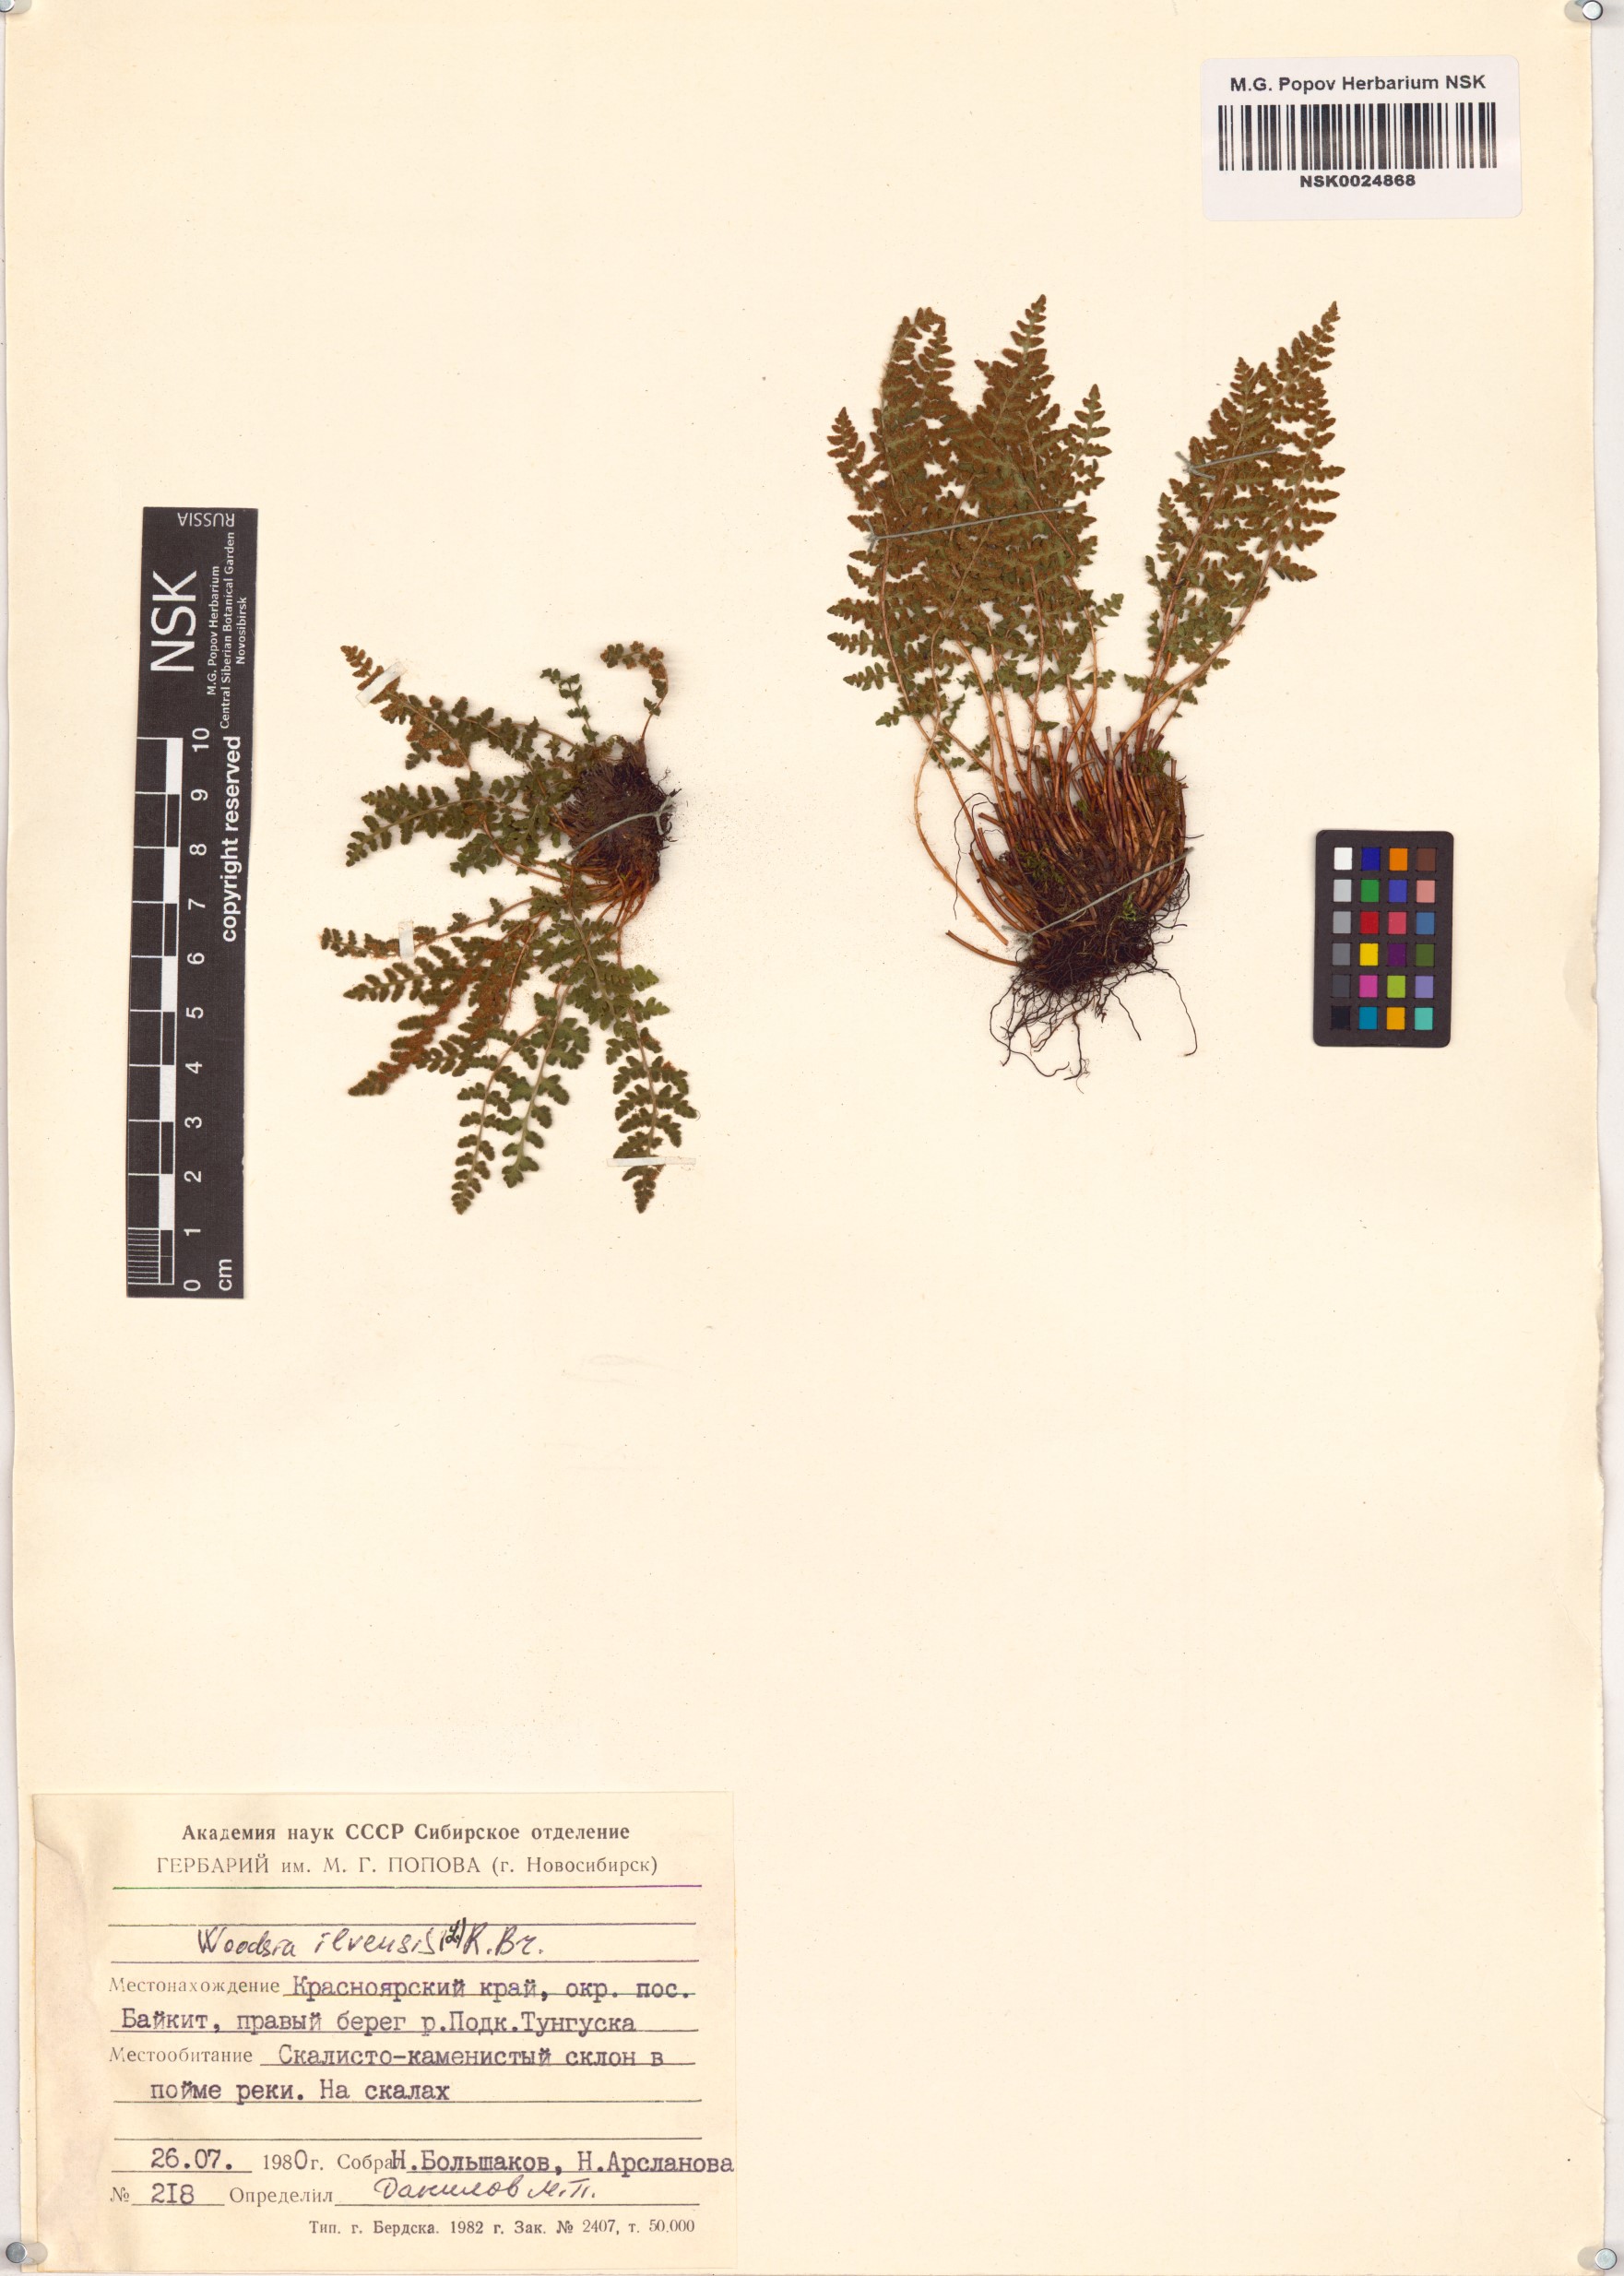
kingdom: Plantae
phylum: Tracheophyta
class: Polypodiopsida
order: Polypodiales
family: Woodsiaceae
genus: Woodsia
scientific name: Woodsia ilvensis
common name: Fragrant woodsia
